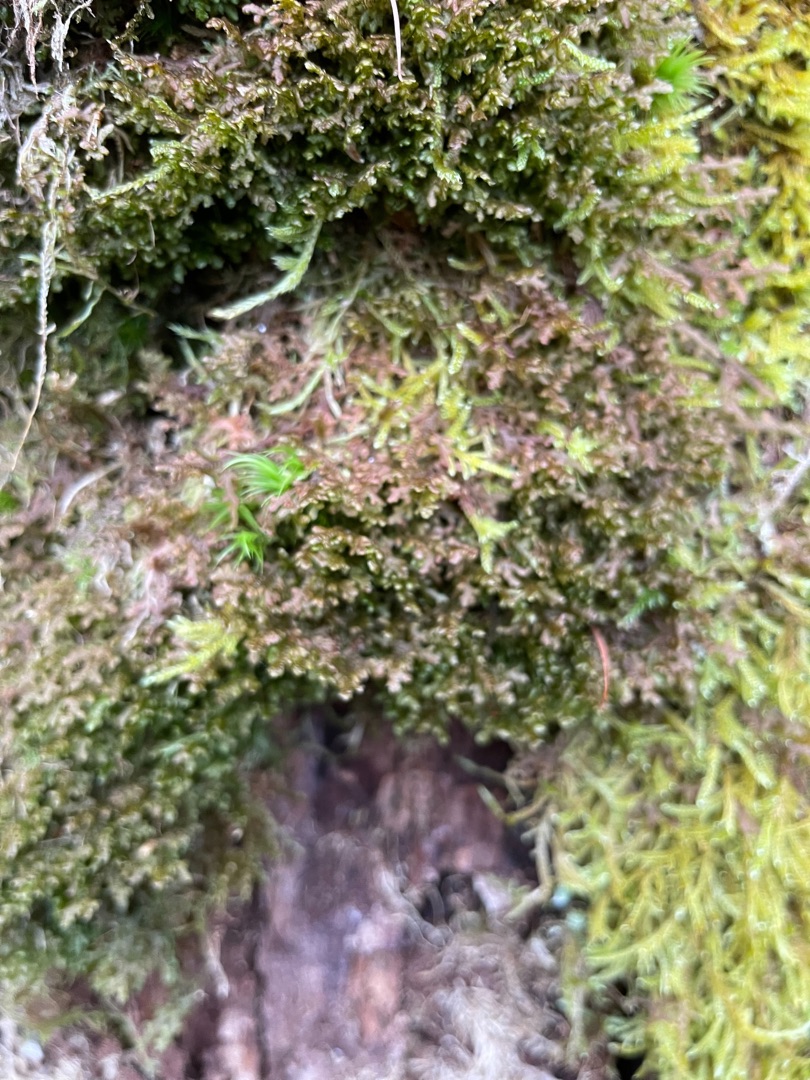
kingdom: Plantae
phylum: Marchantiophyta
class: Jungermanniopsida
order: Porellales
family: Frullaniaceae
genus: Frullania
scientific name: Frullania
